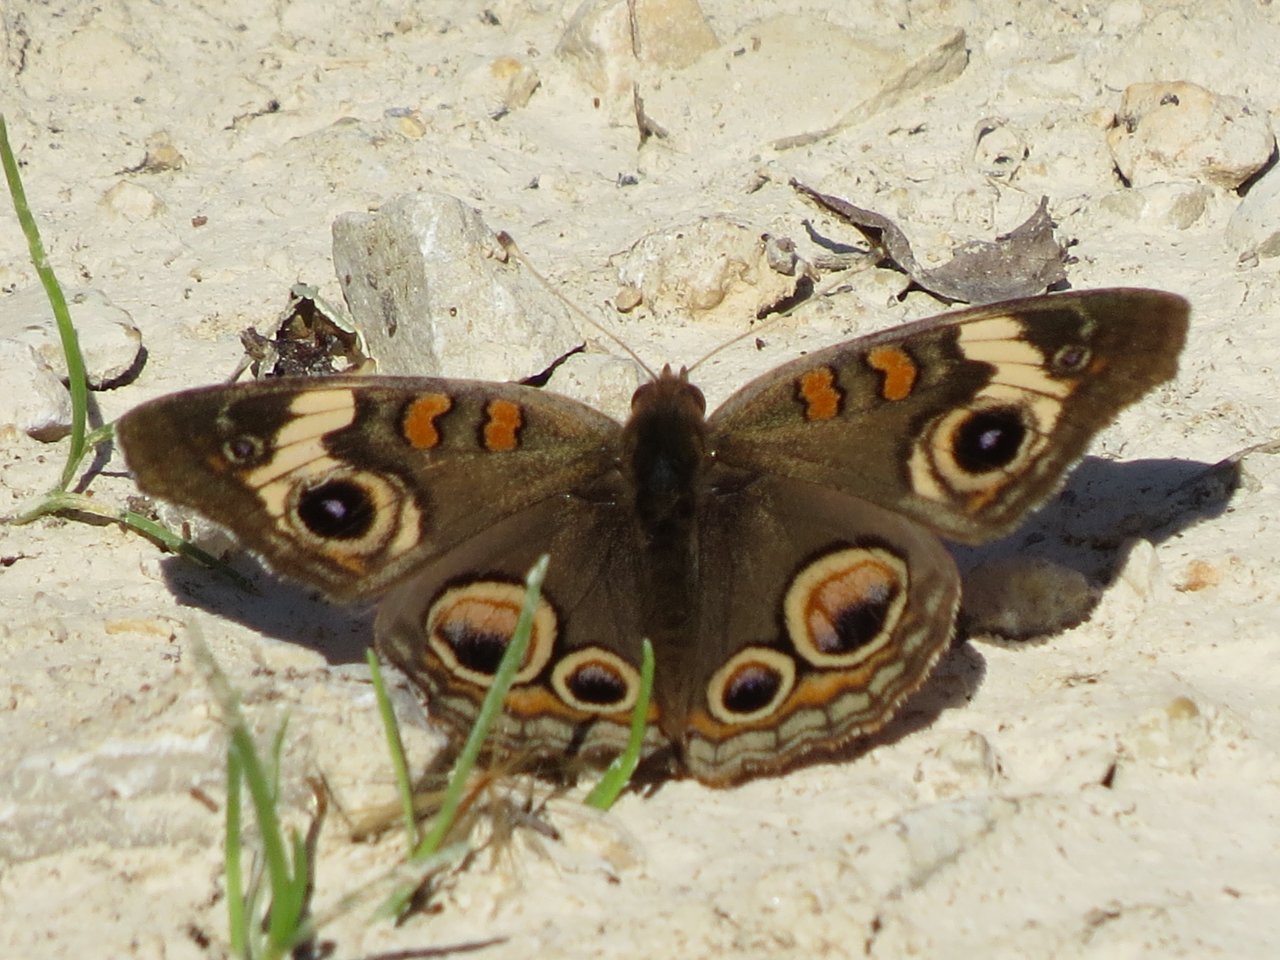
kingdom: Animalia
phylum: Arthropoda
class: Insecta
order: Lepidoptera
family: Nymphalidae
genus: Junonia
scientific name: Junonia coenia
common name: Common Buckeye
